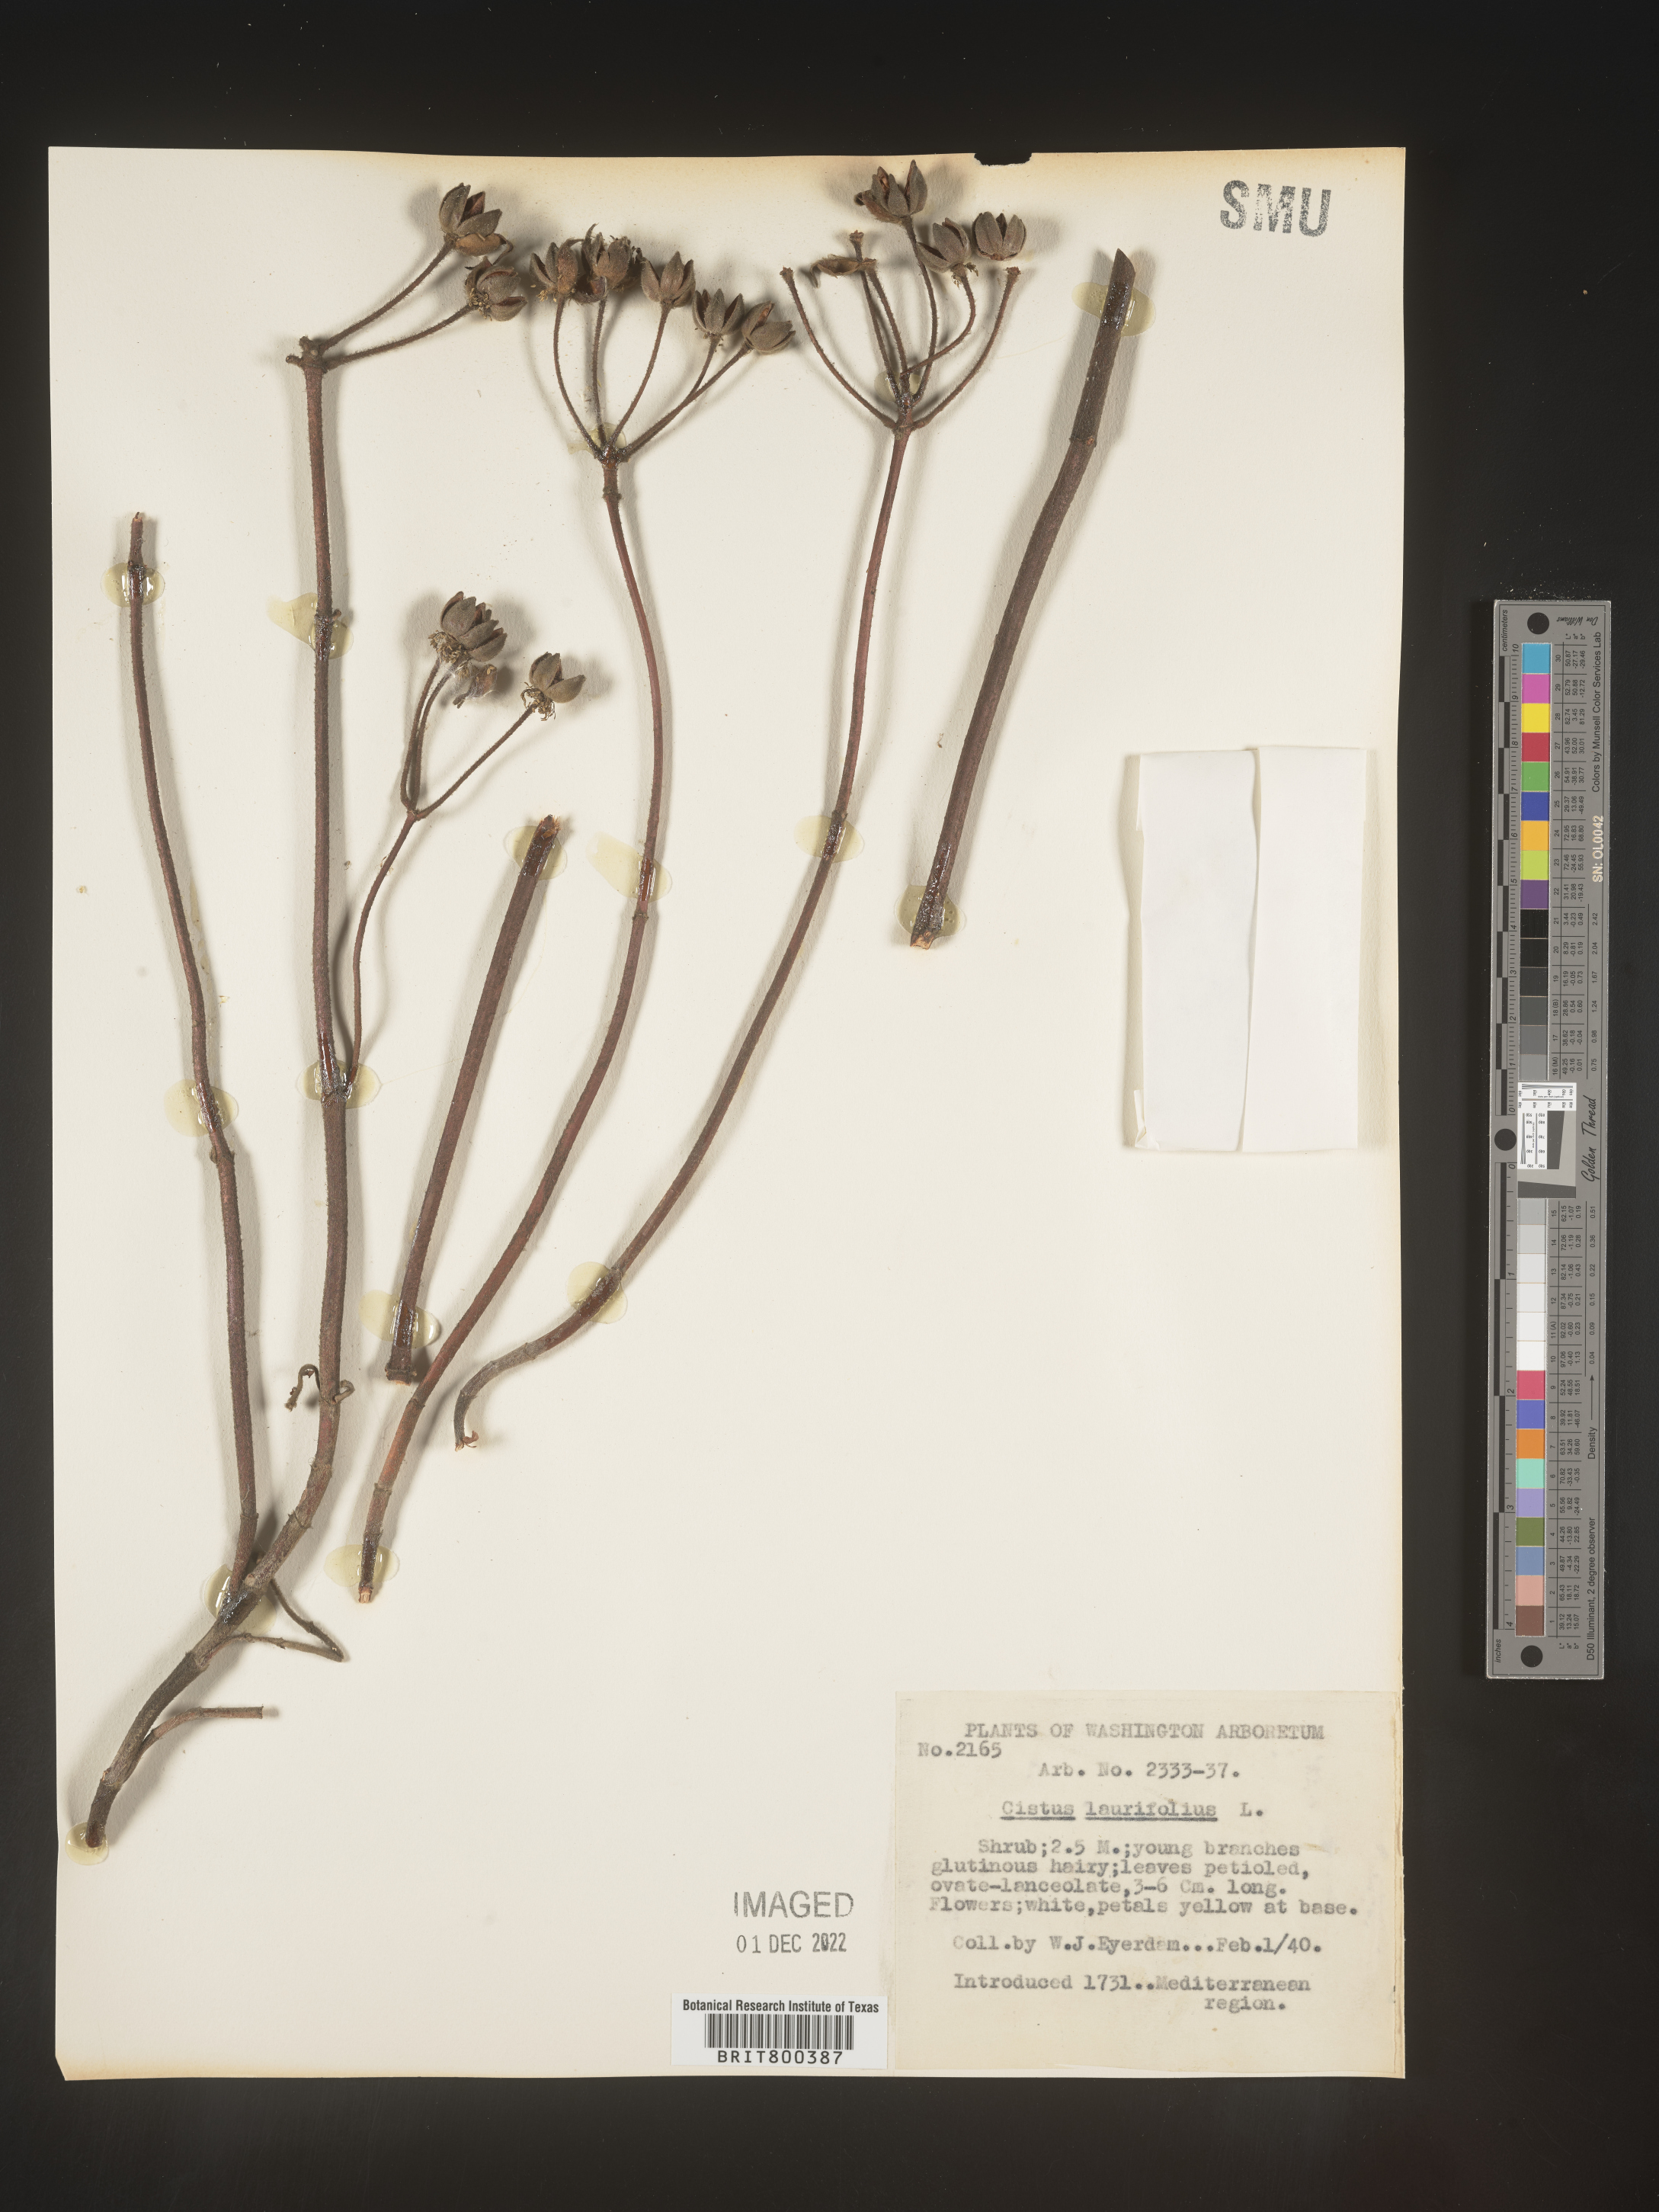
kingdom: Plantae
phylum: Tracheophyta
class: Magnoliopsida
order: Malvales
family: Cistaceae
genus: Cistus
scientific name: Cistus
